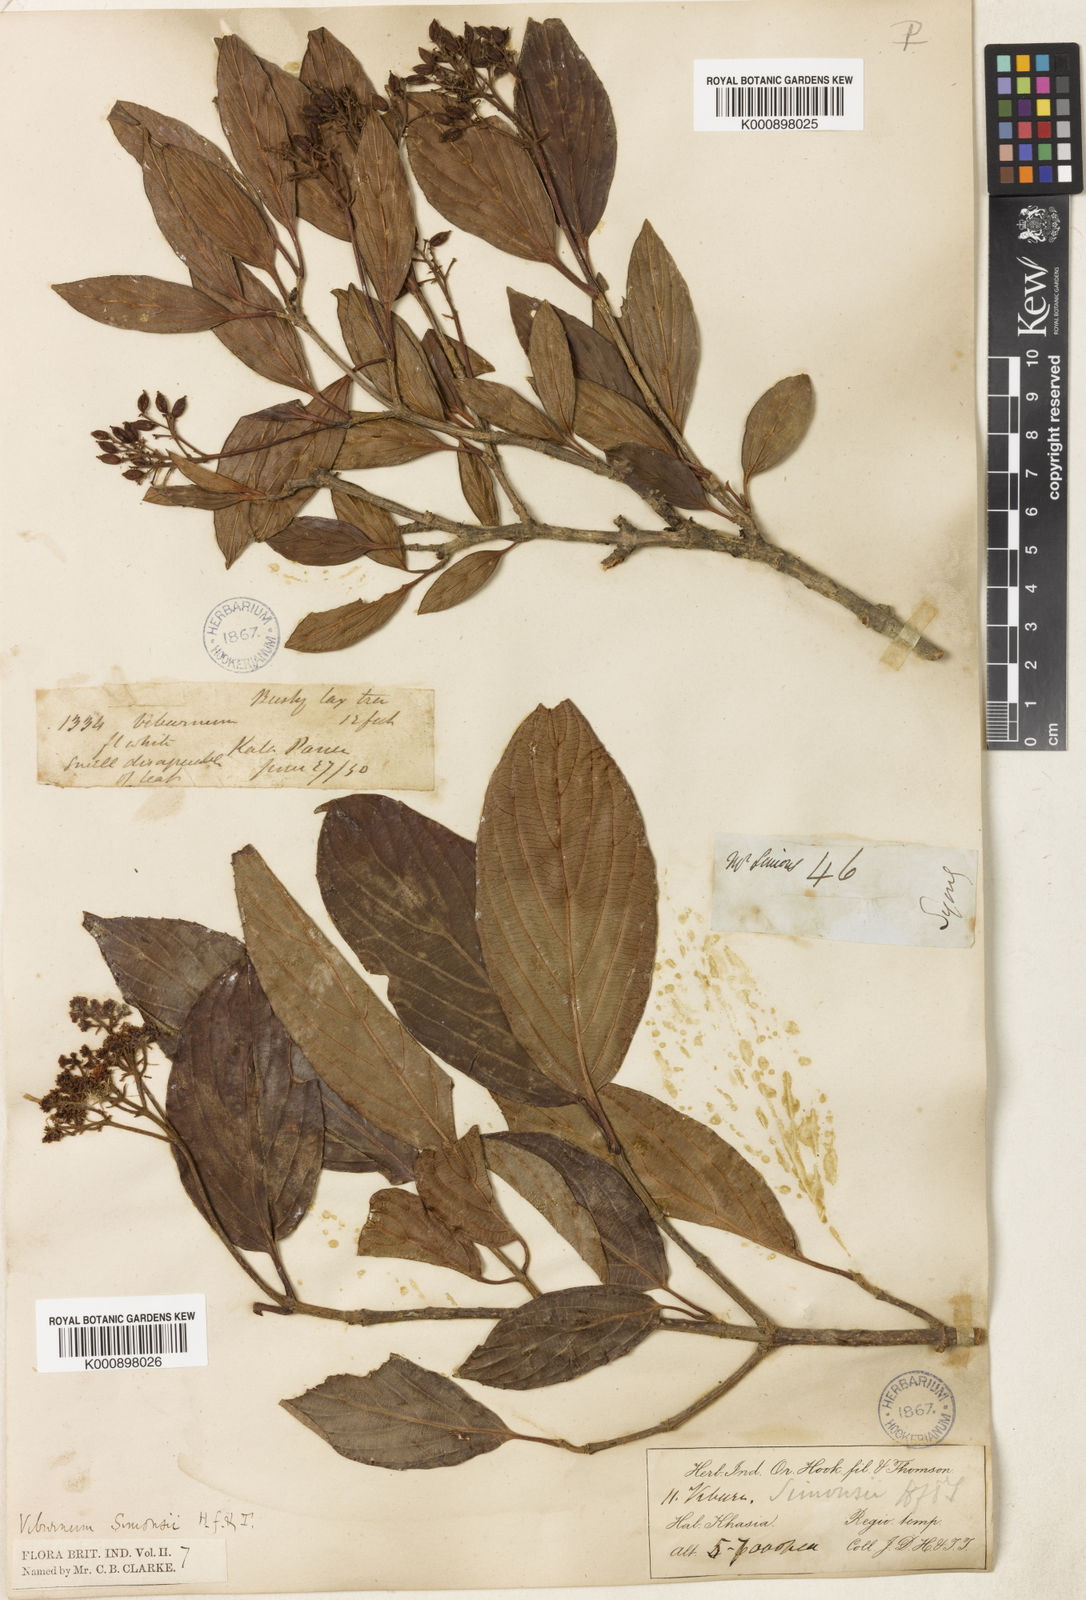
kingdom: Plantae
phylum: Tracheophyta
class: Magnoliopsida
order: Dipsacales
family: Viburnaceae
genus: Viburnum
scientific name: Viburnum simonsii
